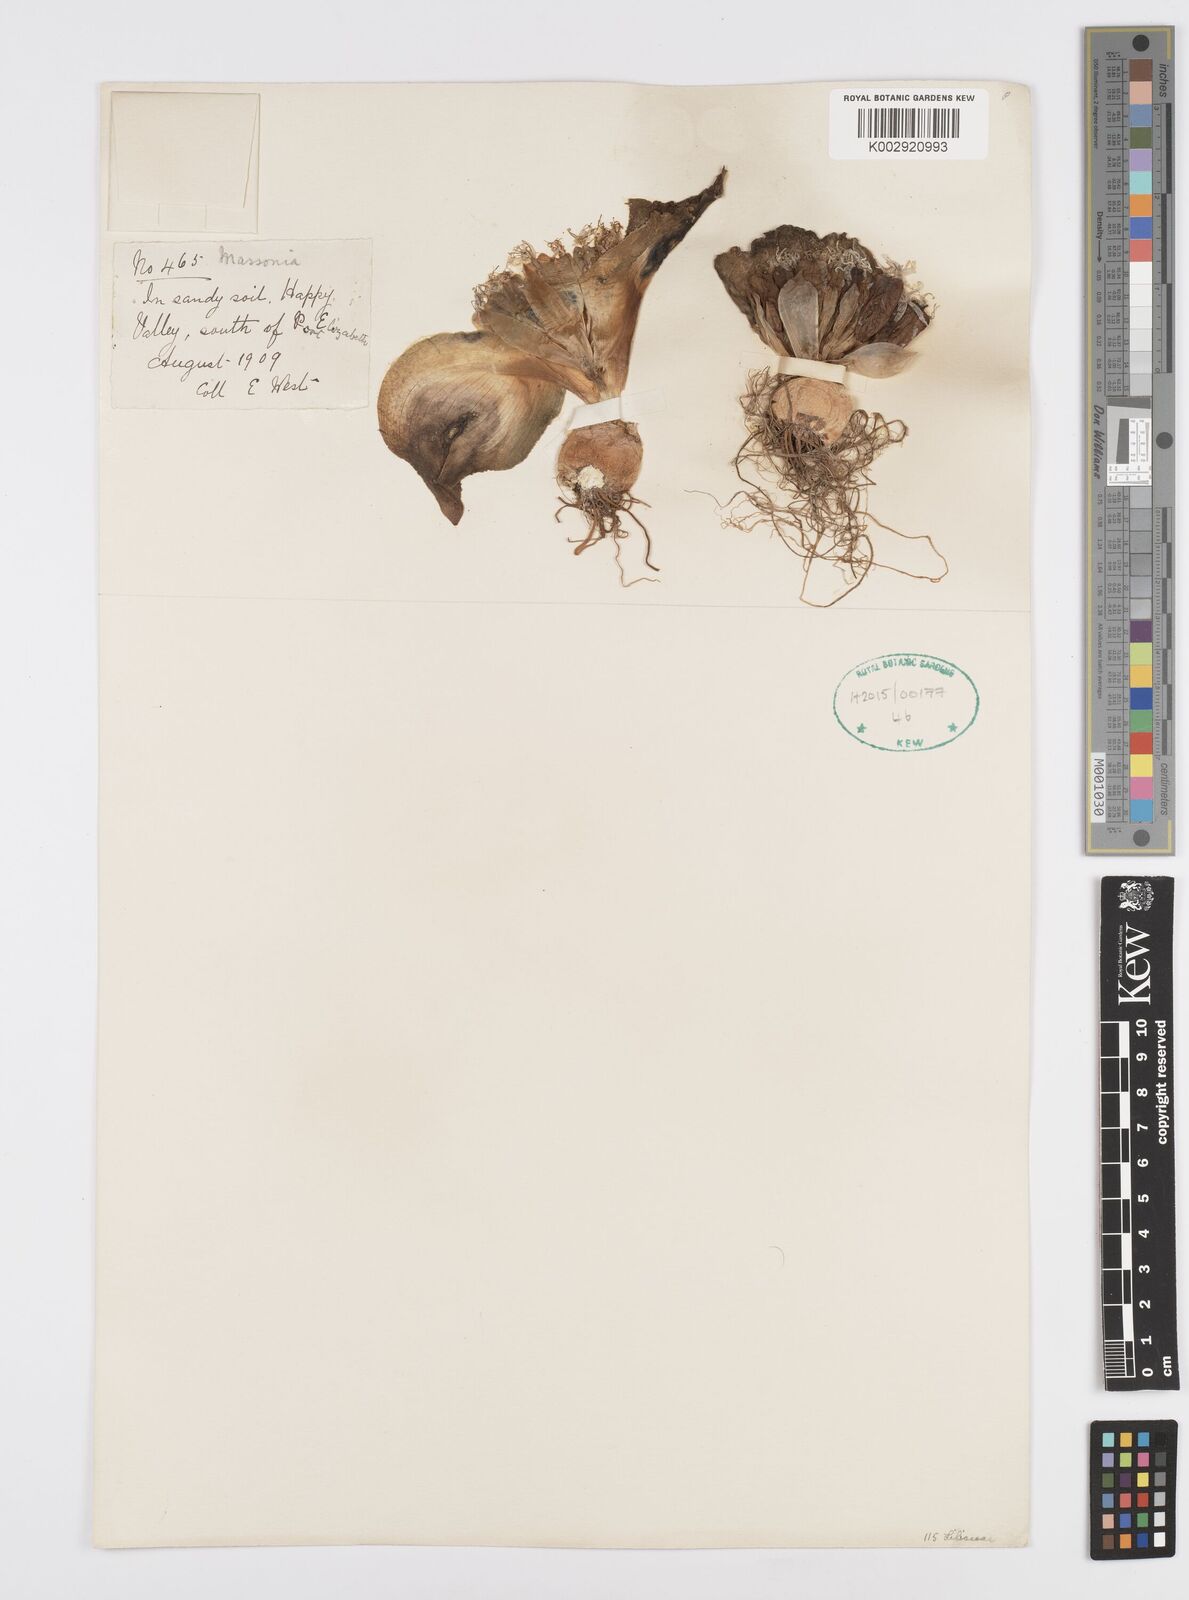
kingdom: Plantae
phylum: Tracheophyta
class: Liliopsida
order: Asparagales
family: Asparagaceae
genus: Massonia
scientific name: Massonia
